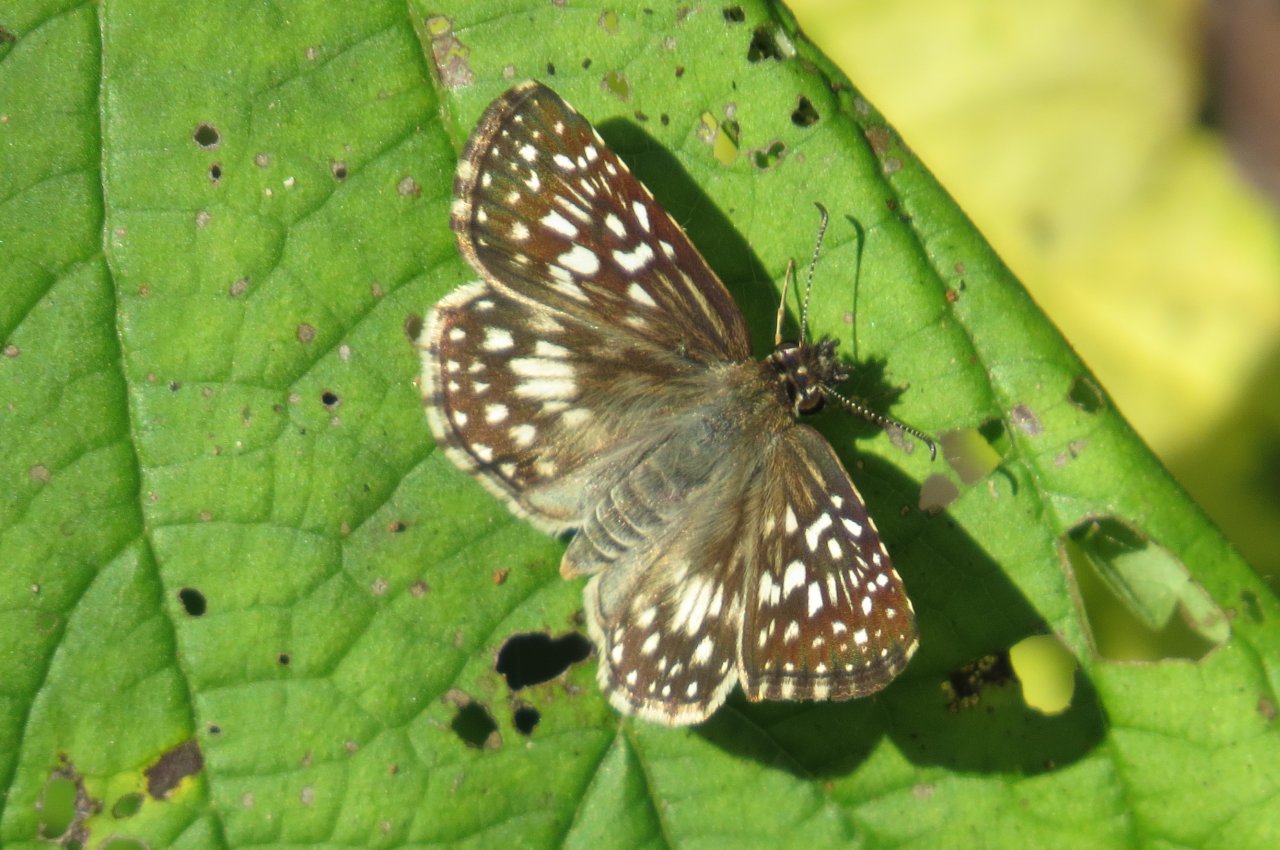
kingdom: Animalia
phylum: Arthropoda
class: Insecta
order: Lepidoptera
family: Hesperiidae
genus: Pyrgus
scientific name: Pyrgus oileus
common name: Tropical Checkered-Skipper
